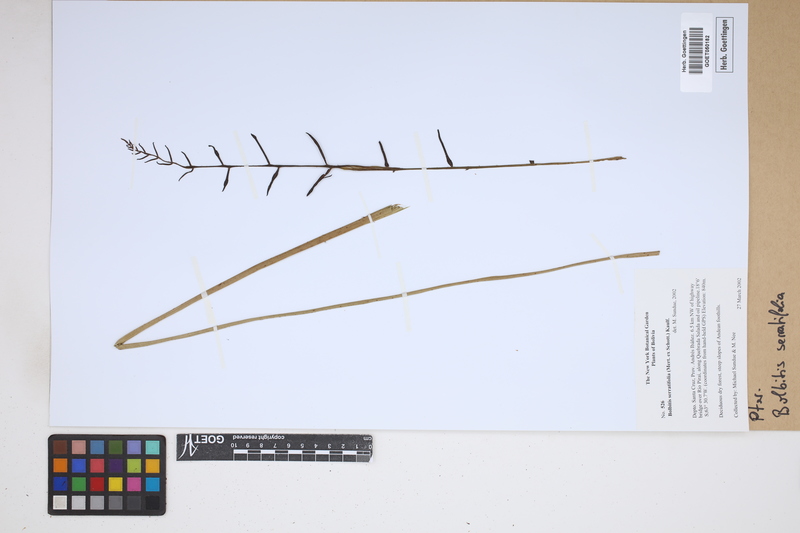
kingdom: Plantae
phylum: Tracheophyta
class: Polypodiopsida
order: Polypodiales
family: Dryopteridaceae
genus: Bolbitis
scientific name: Bolbitis serratifolia
